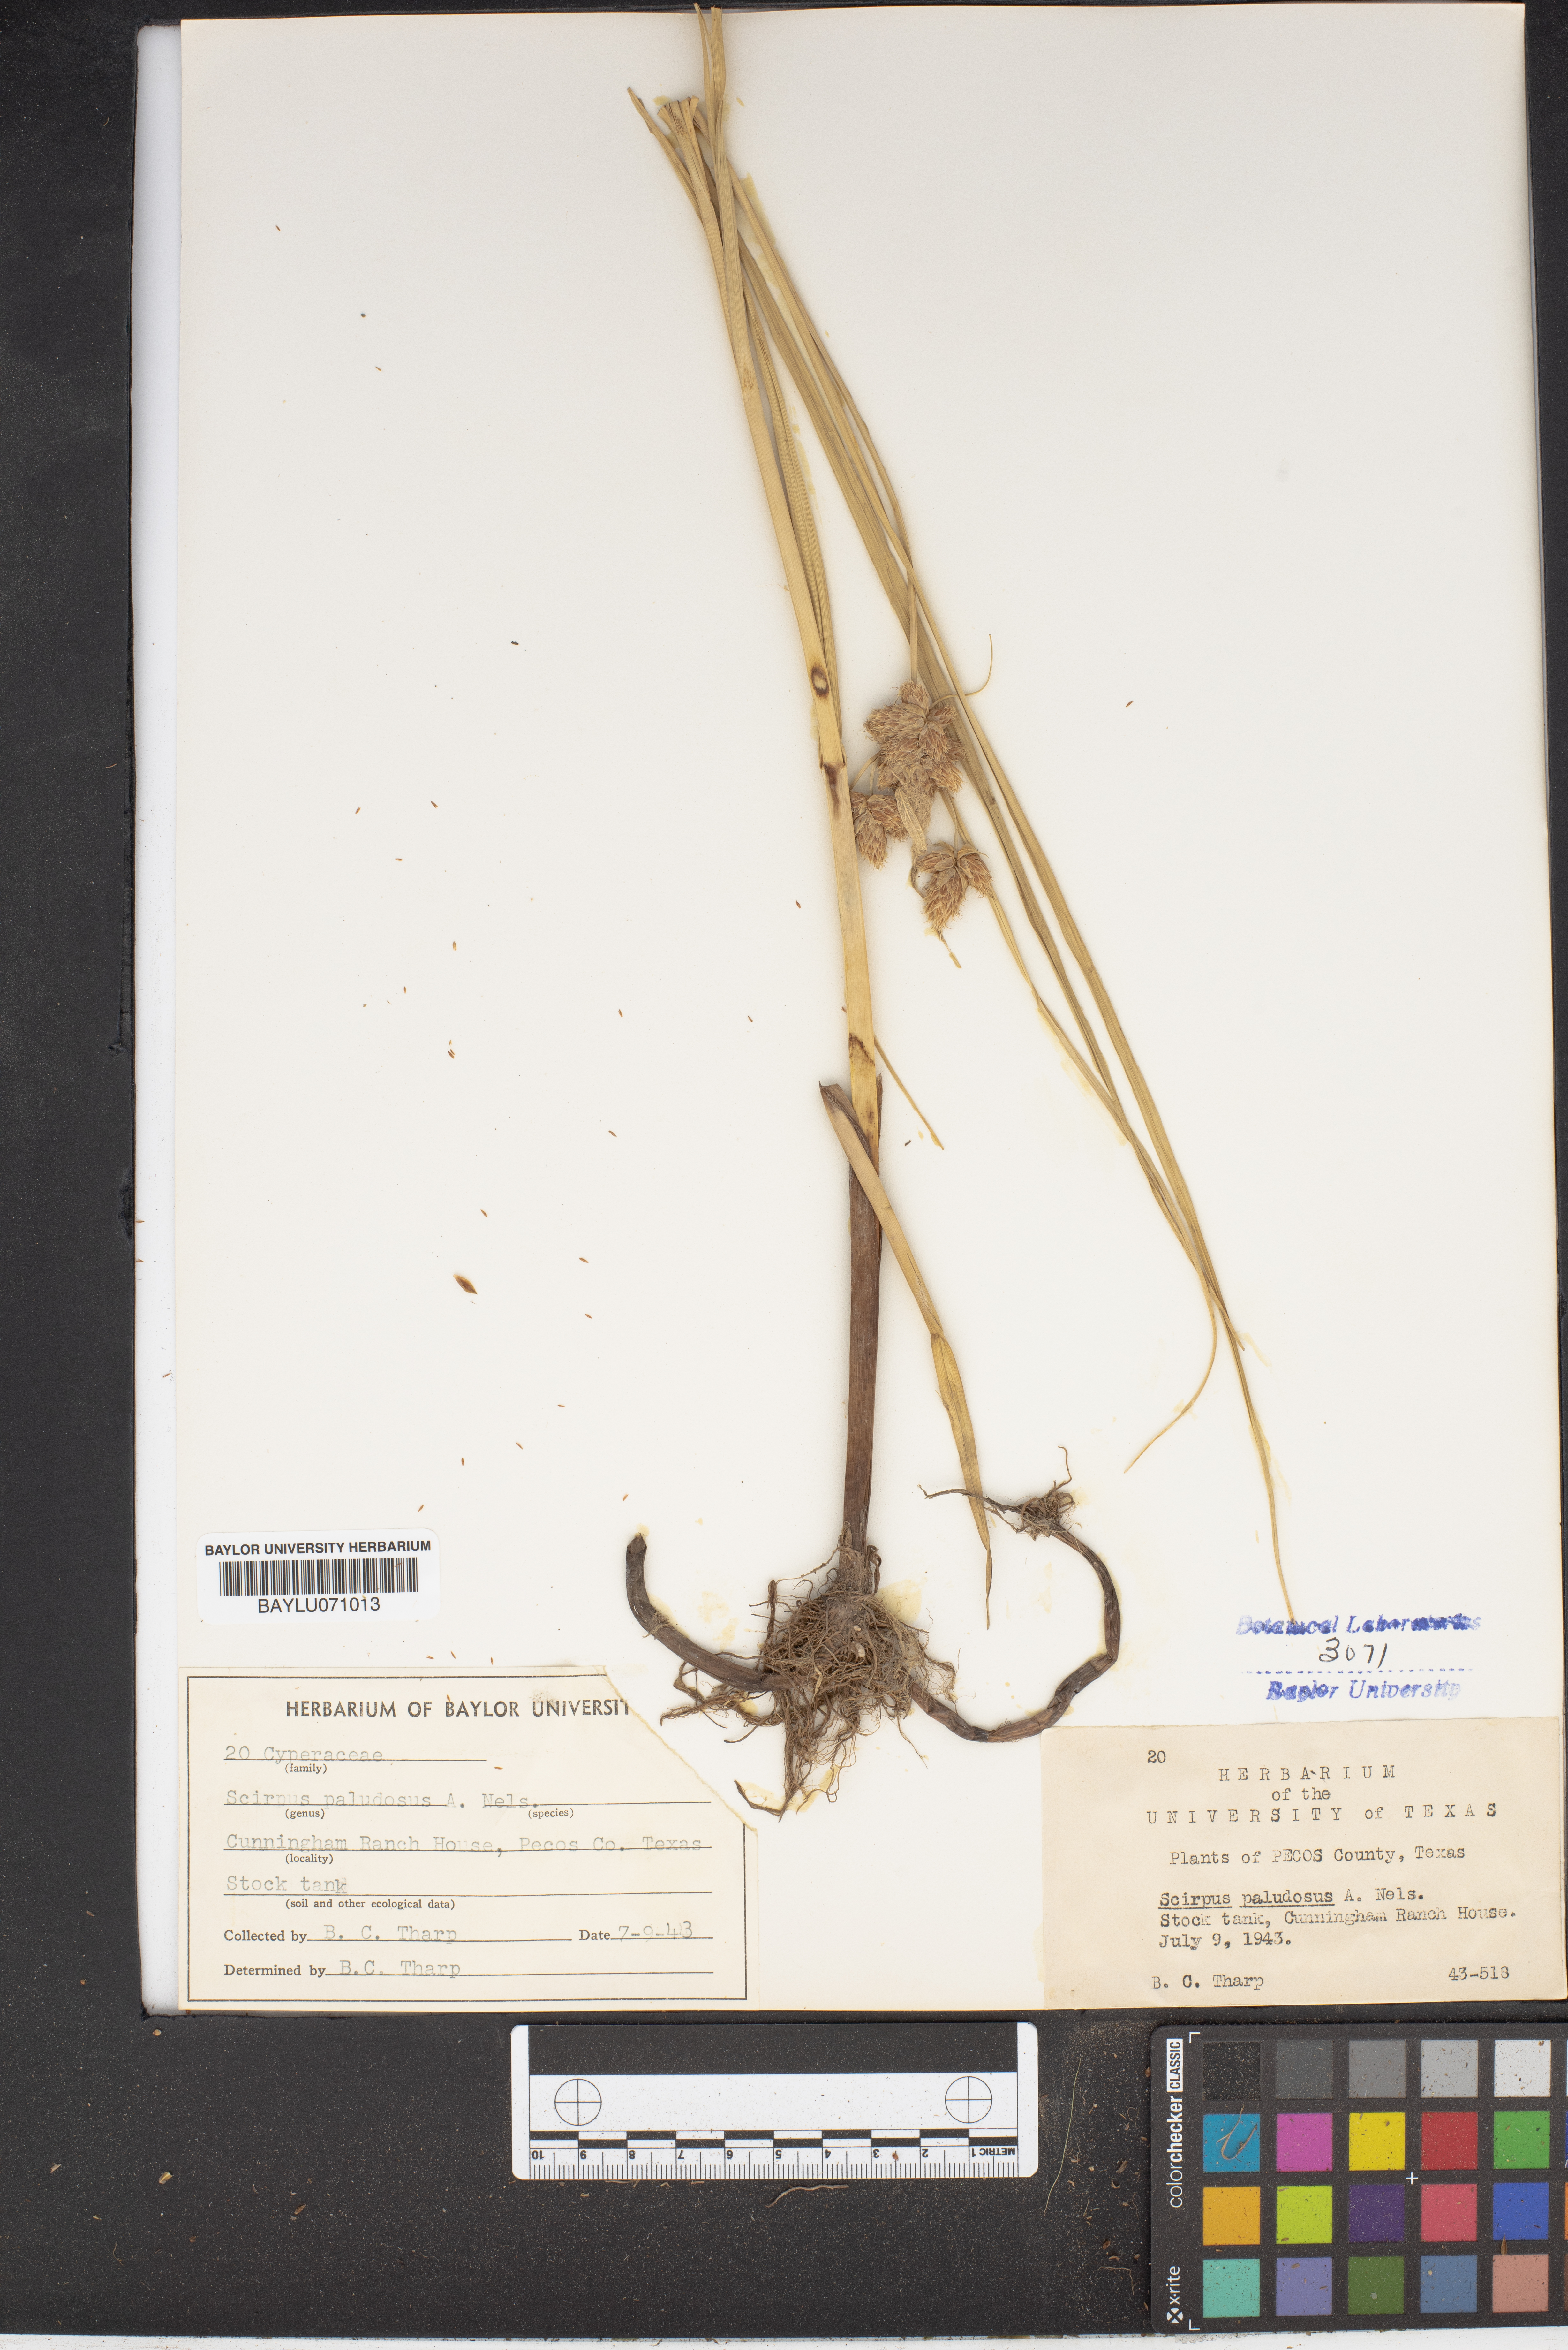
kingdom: Plantae
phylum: Tracheophyta
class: Liliopsida
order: Poales
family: Cyperaceae
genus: Bolboschoenus
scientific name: Bolboschoenus maritimus
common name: Sea club-rush
